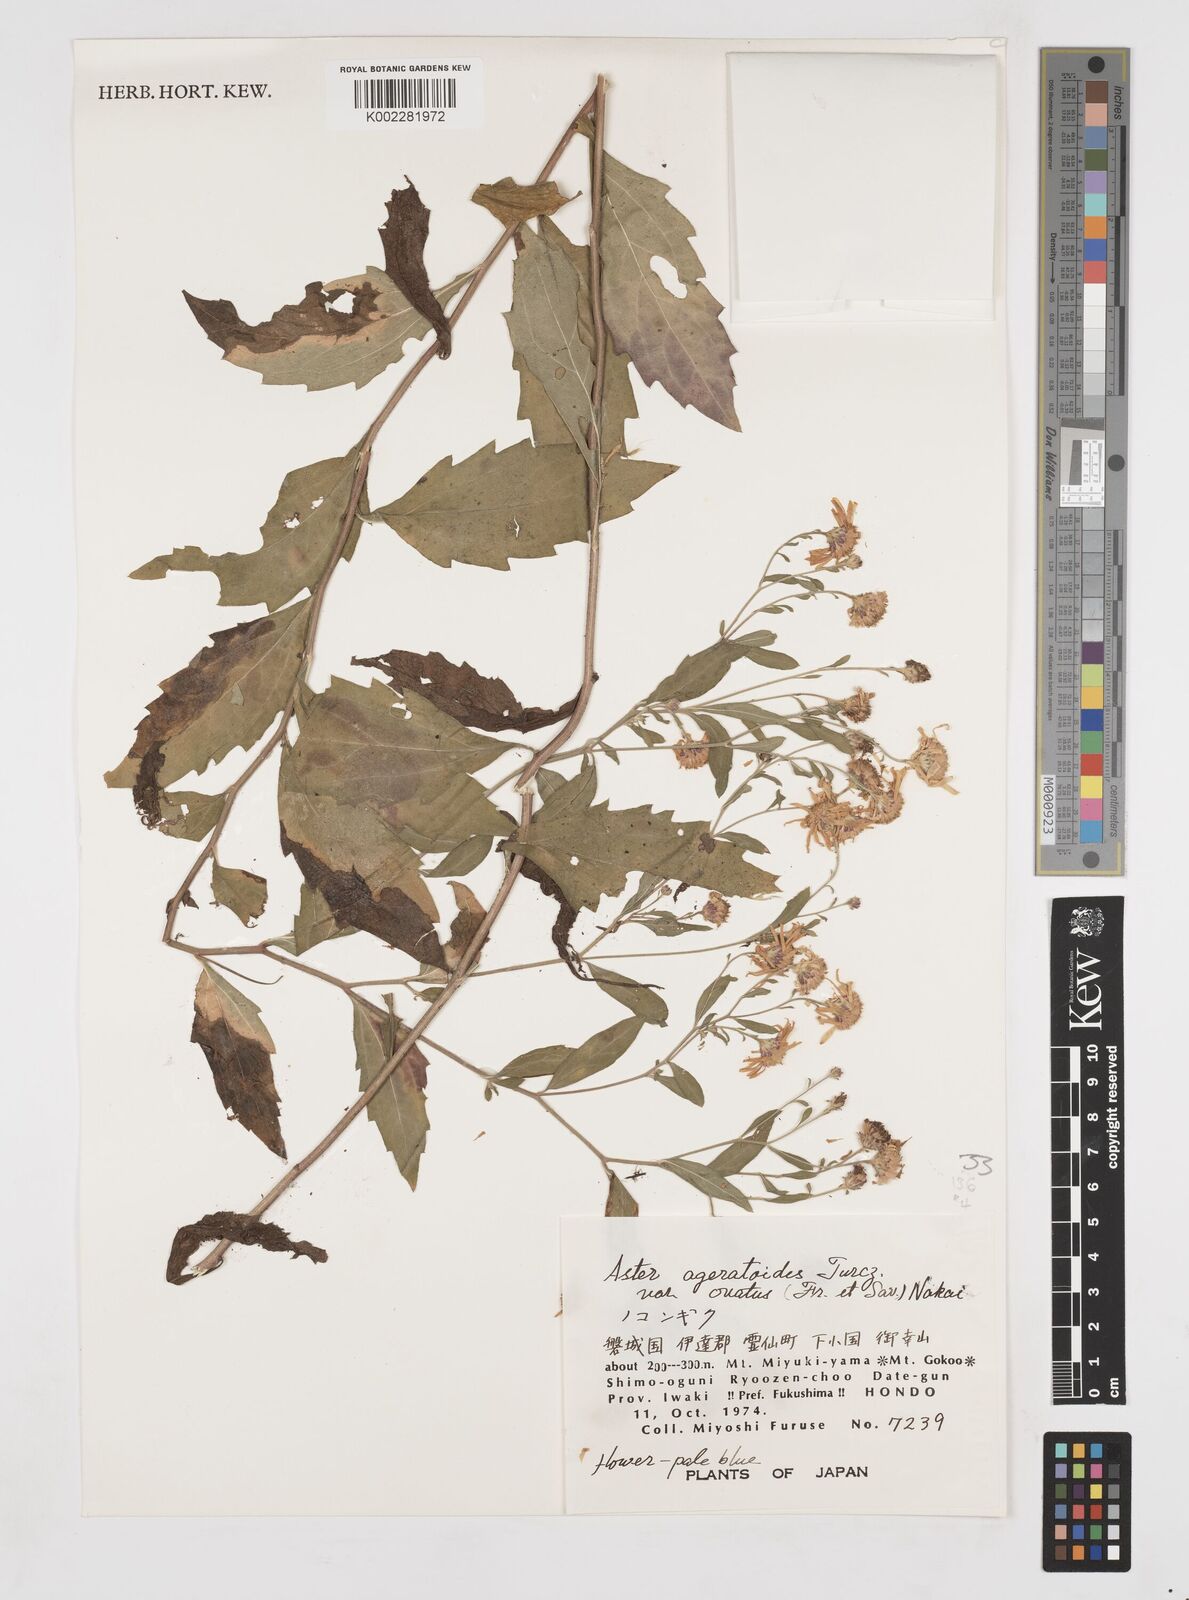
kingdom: Plantae
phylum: Tracheophyta
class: Magnoliopsida
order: Asterales
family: Asteraceae
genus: Aster
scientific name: Aster trinervius
